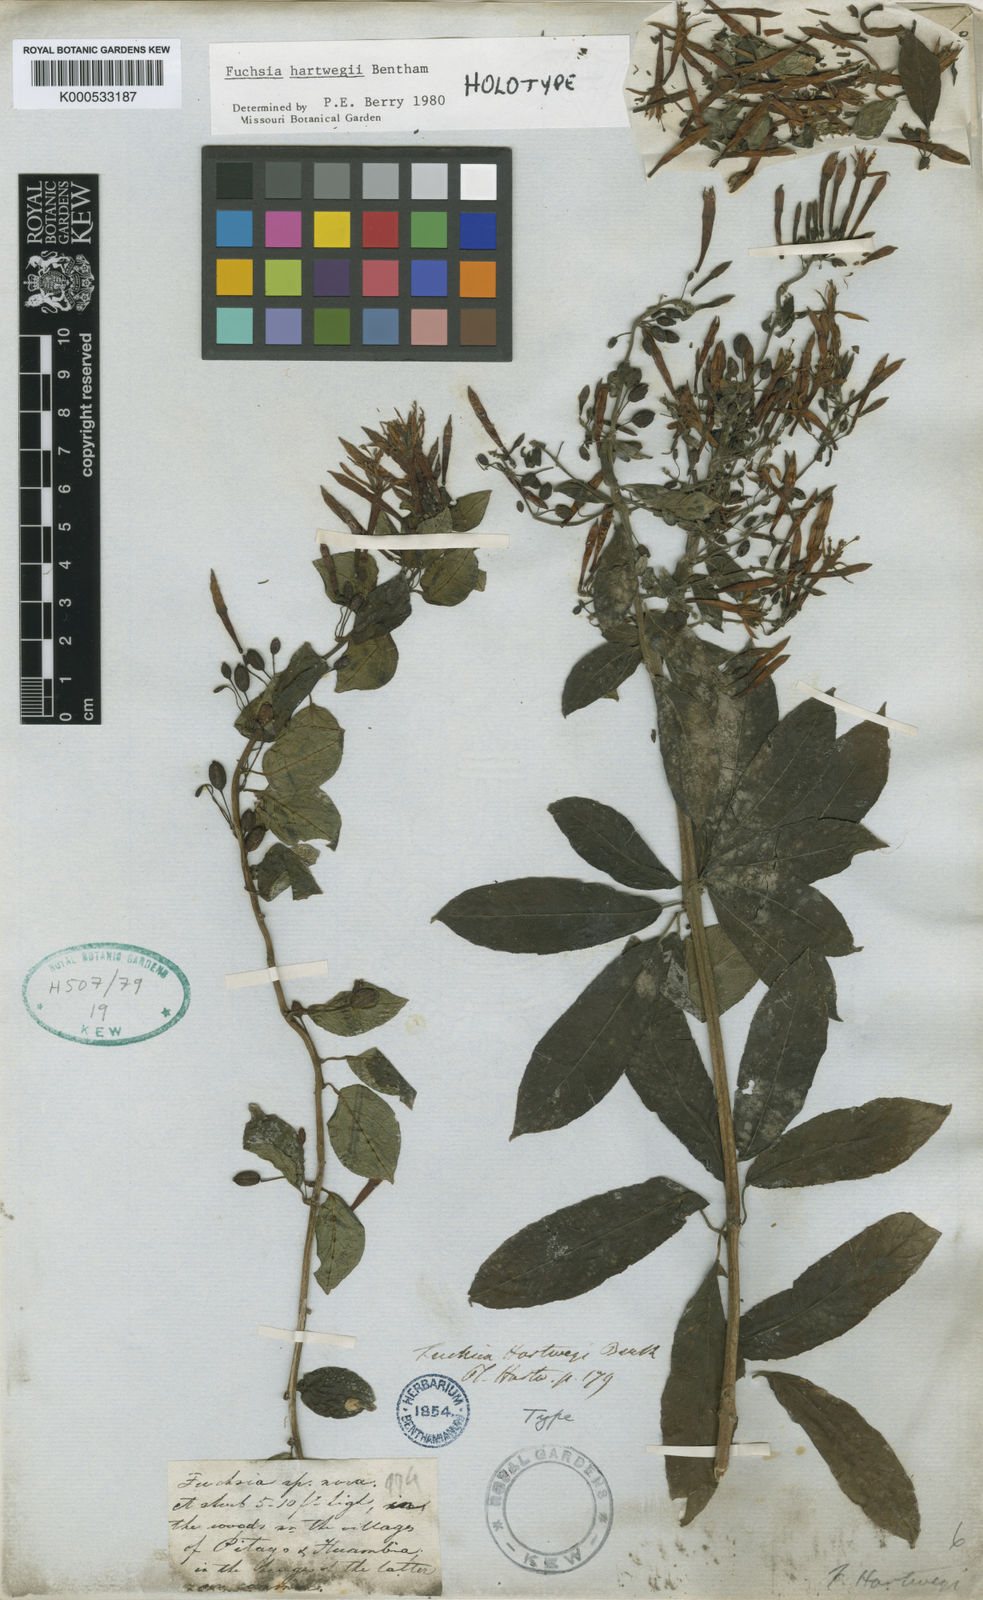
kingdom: Plantae
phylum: Tracheophyta
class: Magnoliopsida
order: Myrtales
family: Onagraceae
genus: Fuchsia
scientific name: Fuchsia hartwegii
